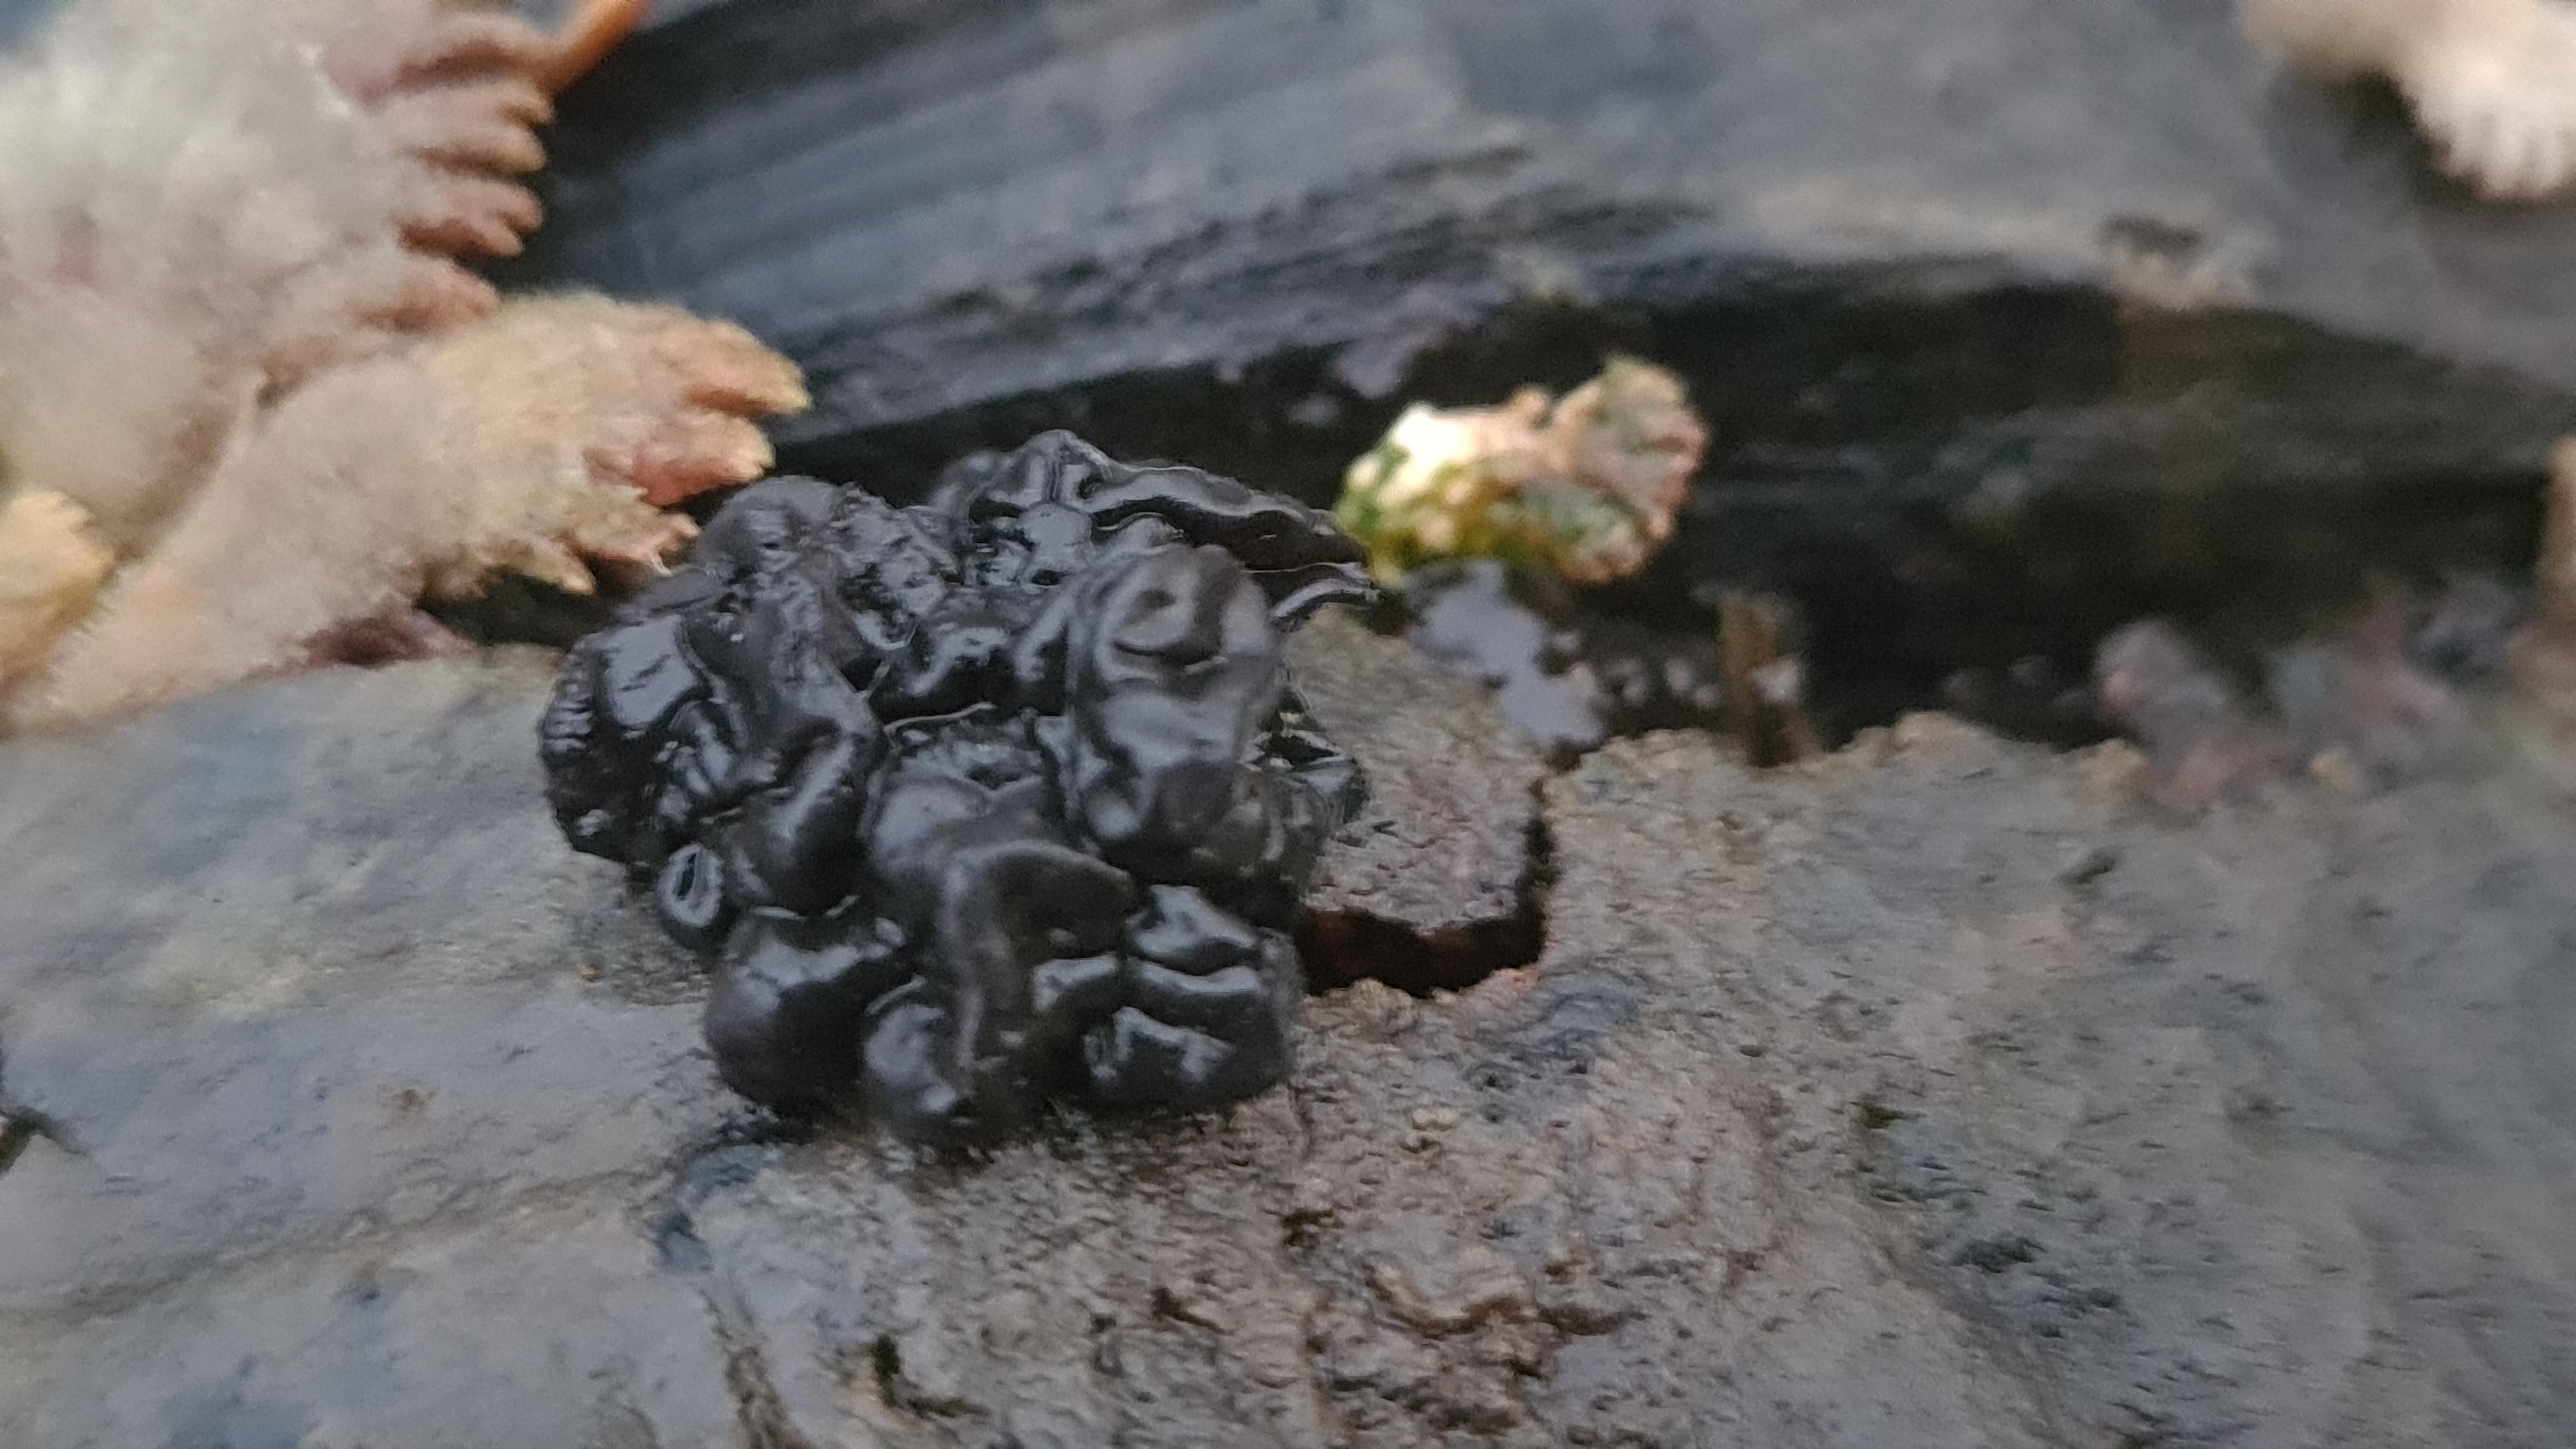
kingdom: Fungi
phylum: Basidiomycota
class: Agaricomycetes
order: Auriculariales
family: Auriculariaceae
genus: Exidia
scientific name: Exidia nigricans
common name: almindelig bævretop
